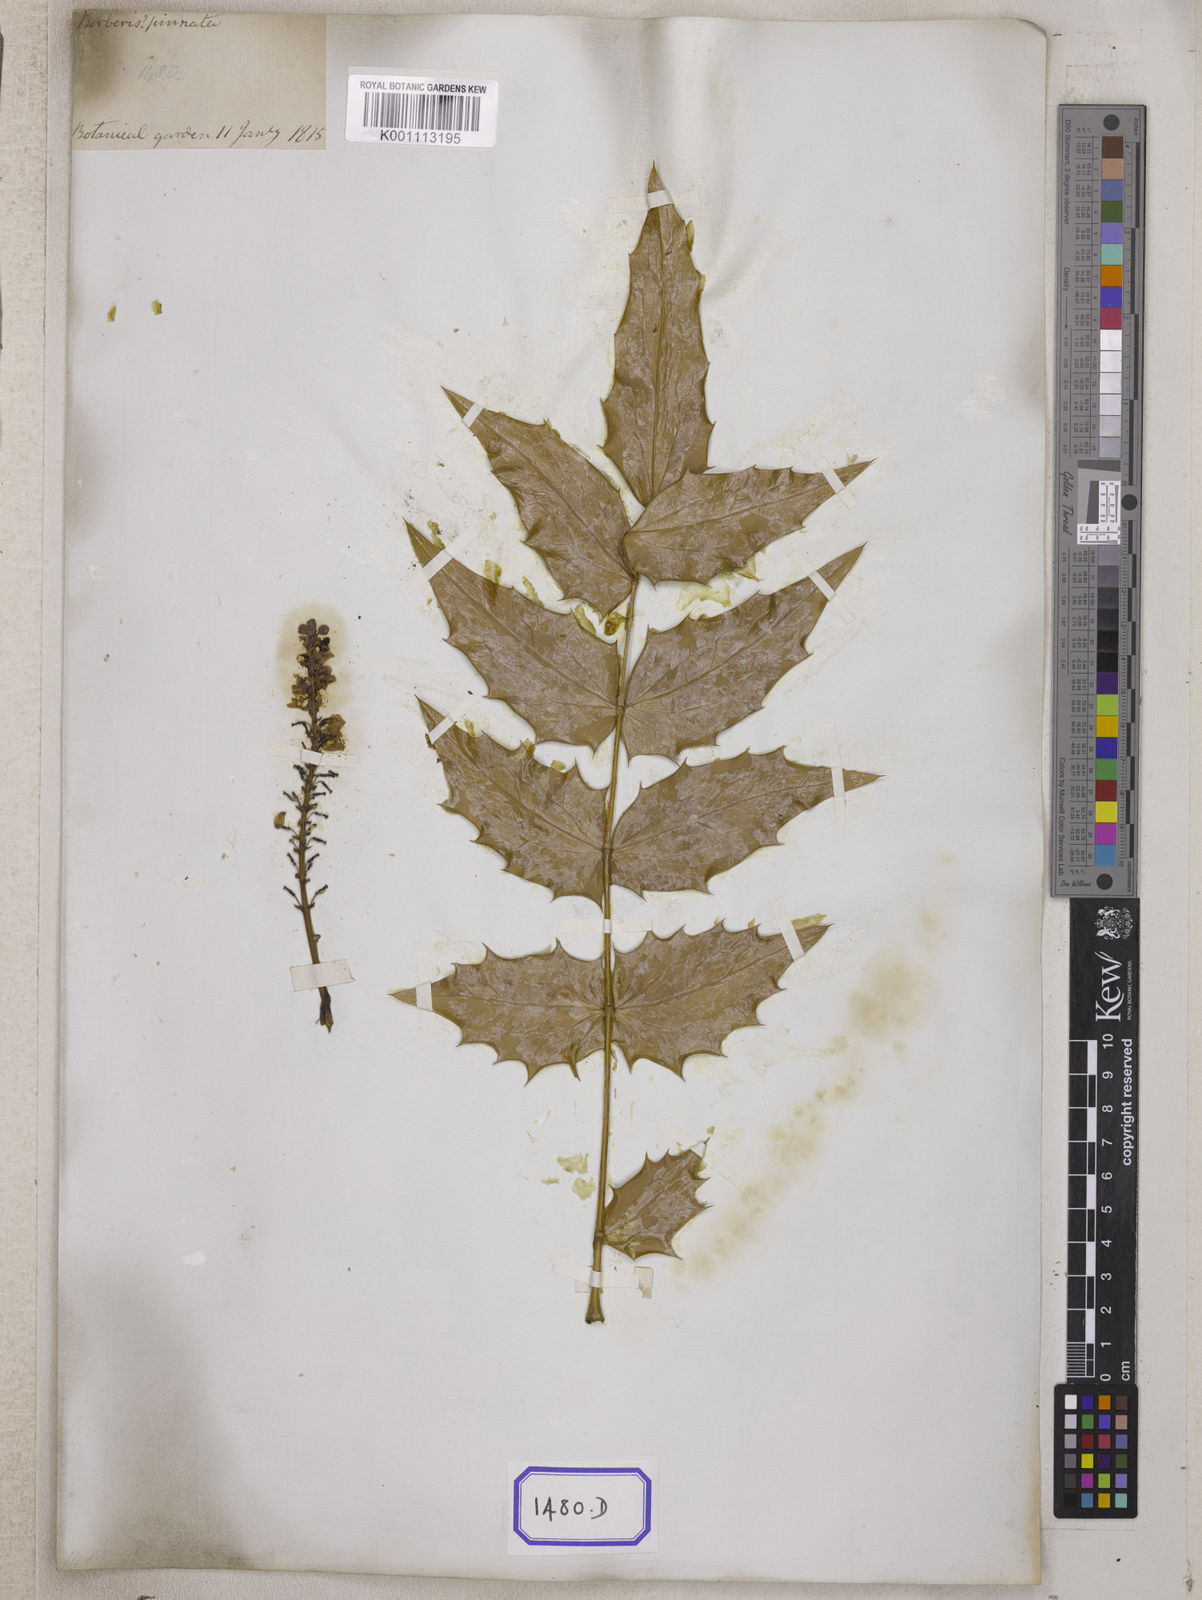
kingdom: Plantae
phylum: Tracheophyta
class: Magnoliopsida
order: Ranunculales
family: Berberidaceae
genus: Berberis
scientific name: Berberis
